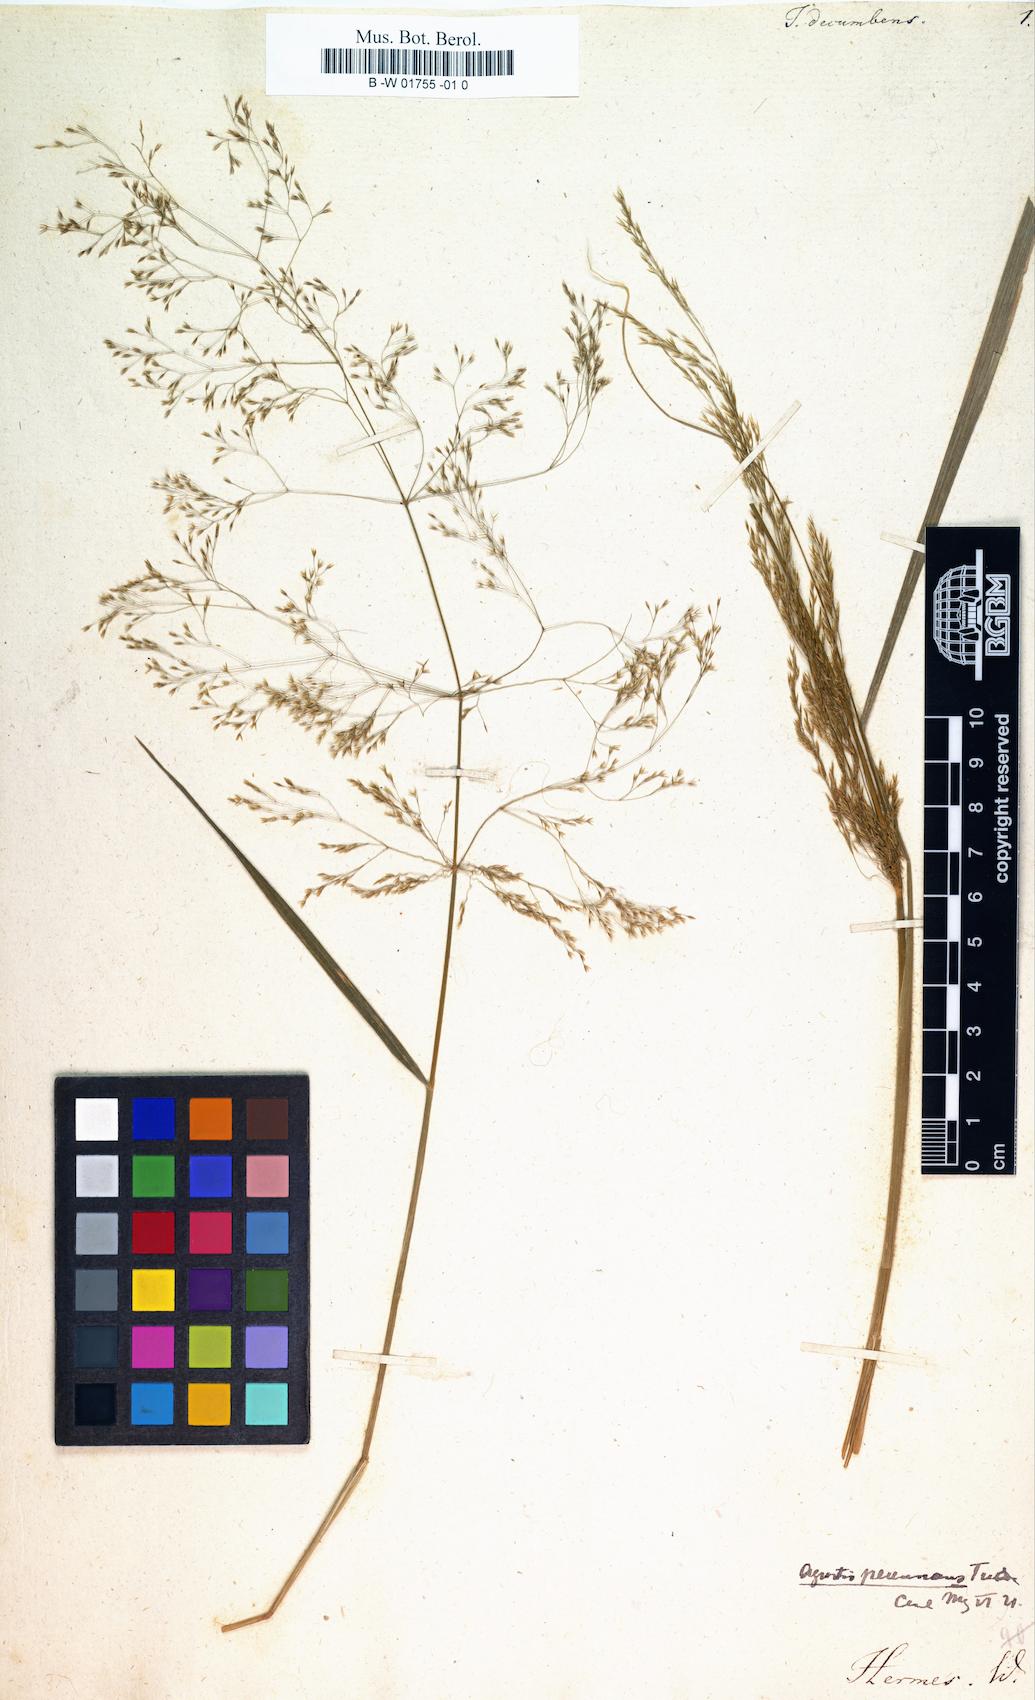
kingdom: Plantae
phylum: Tracheophyta
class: Liliopsida
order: Poales
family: Poaceae
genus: Agrostis
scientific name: Agrostis perennans
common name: Autumn bent
